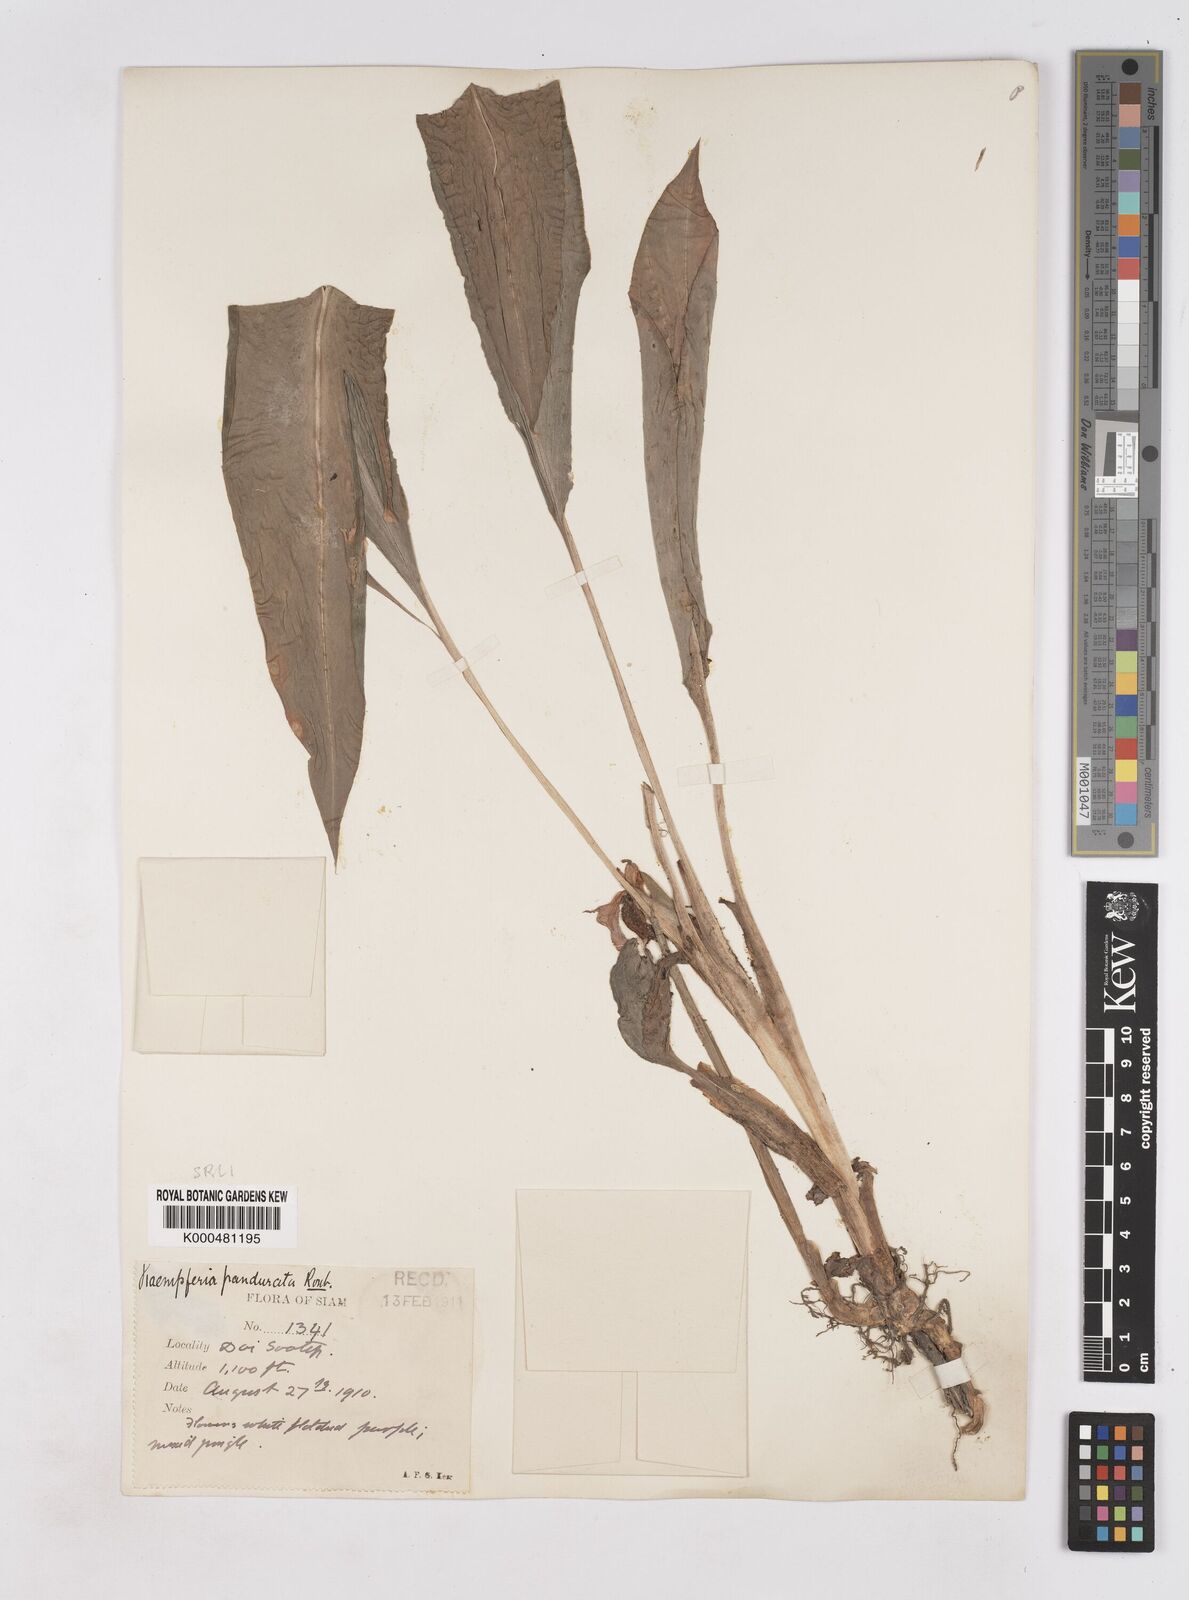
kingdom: Plantae
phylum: Tracheophyta
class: Liliopsida
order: Zingiberales
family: Zingiberaceae
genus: Boesenbergia
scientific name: Boesenbergia rotunda
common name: Chinese ginger
